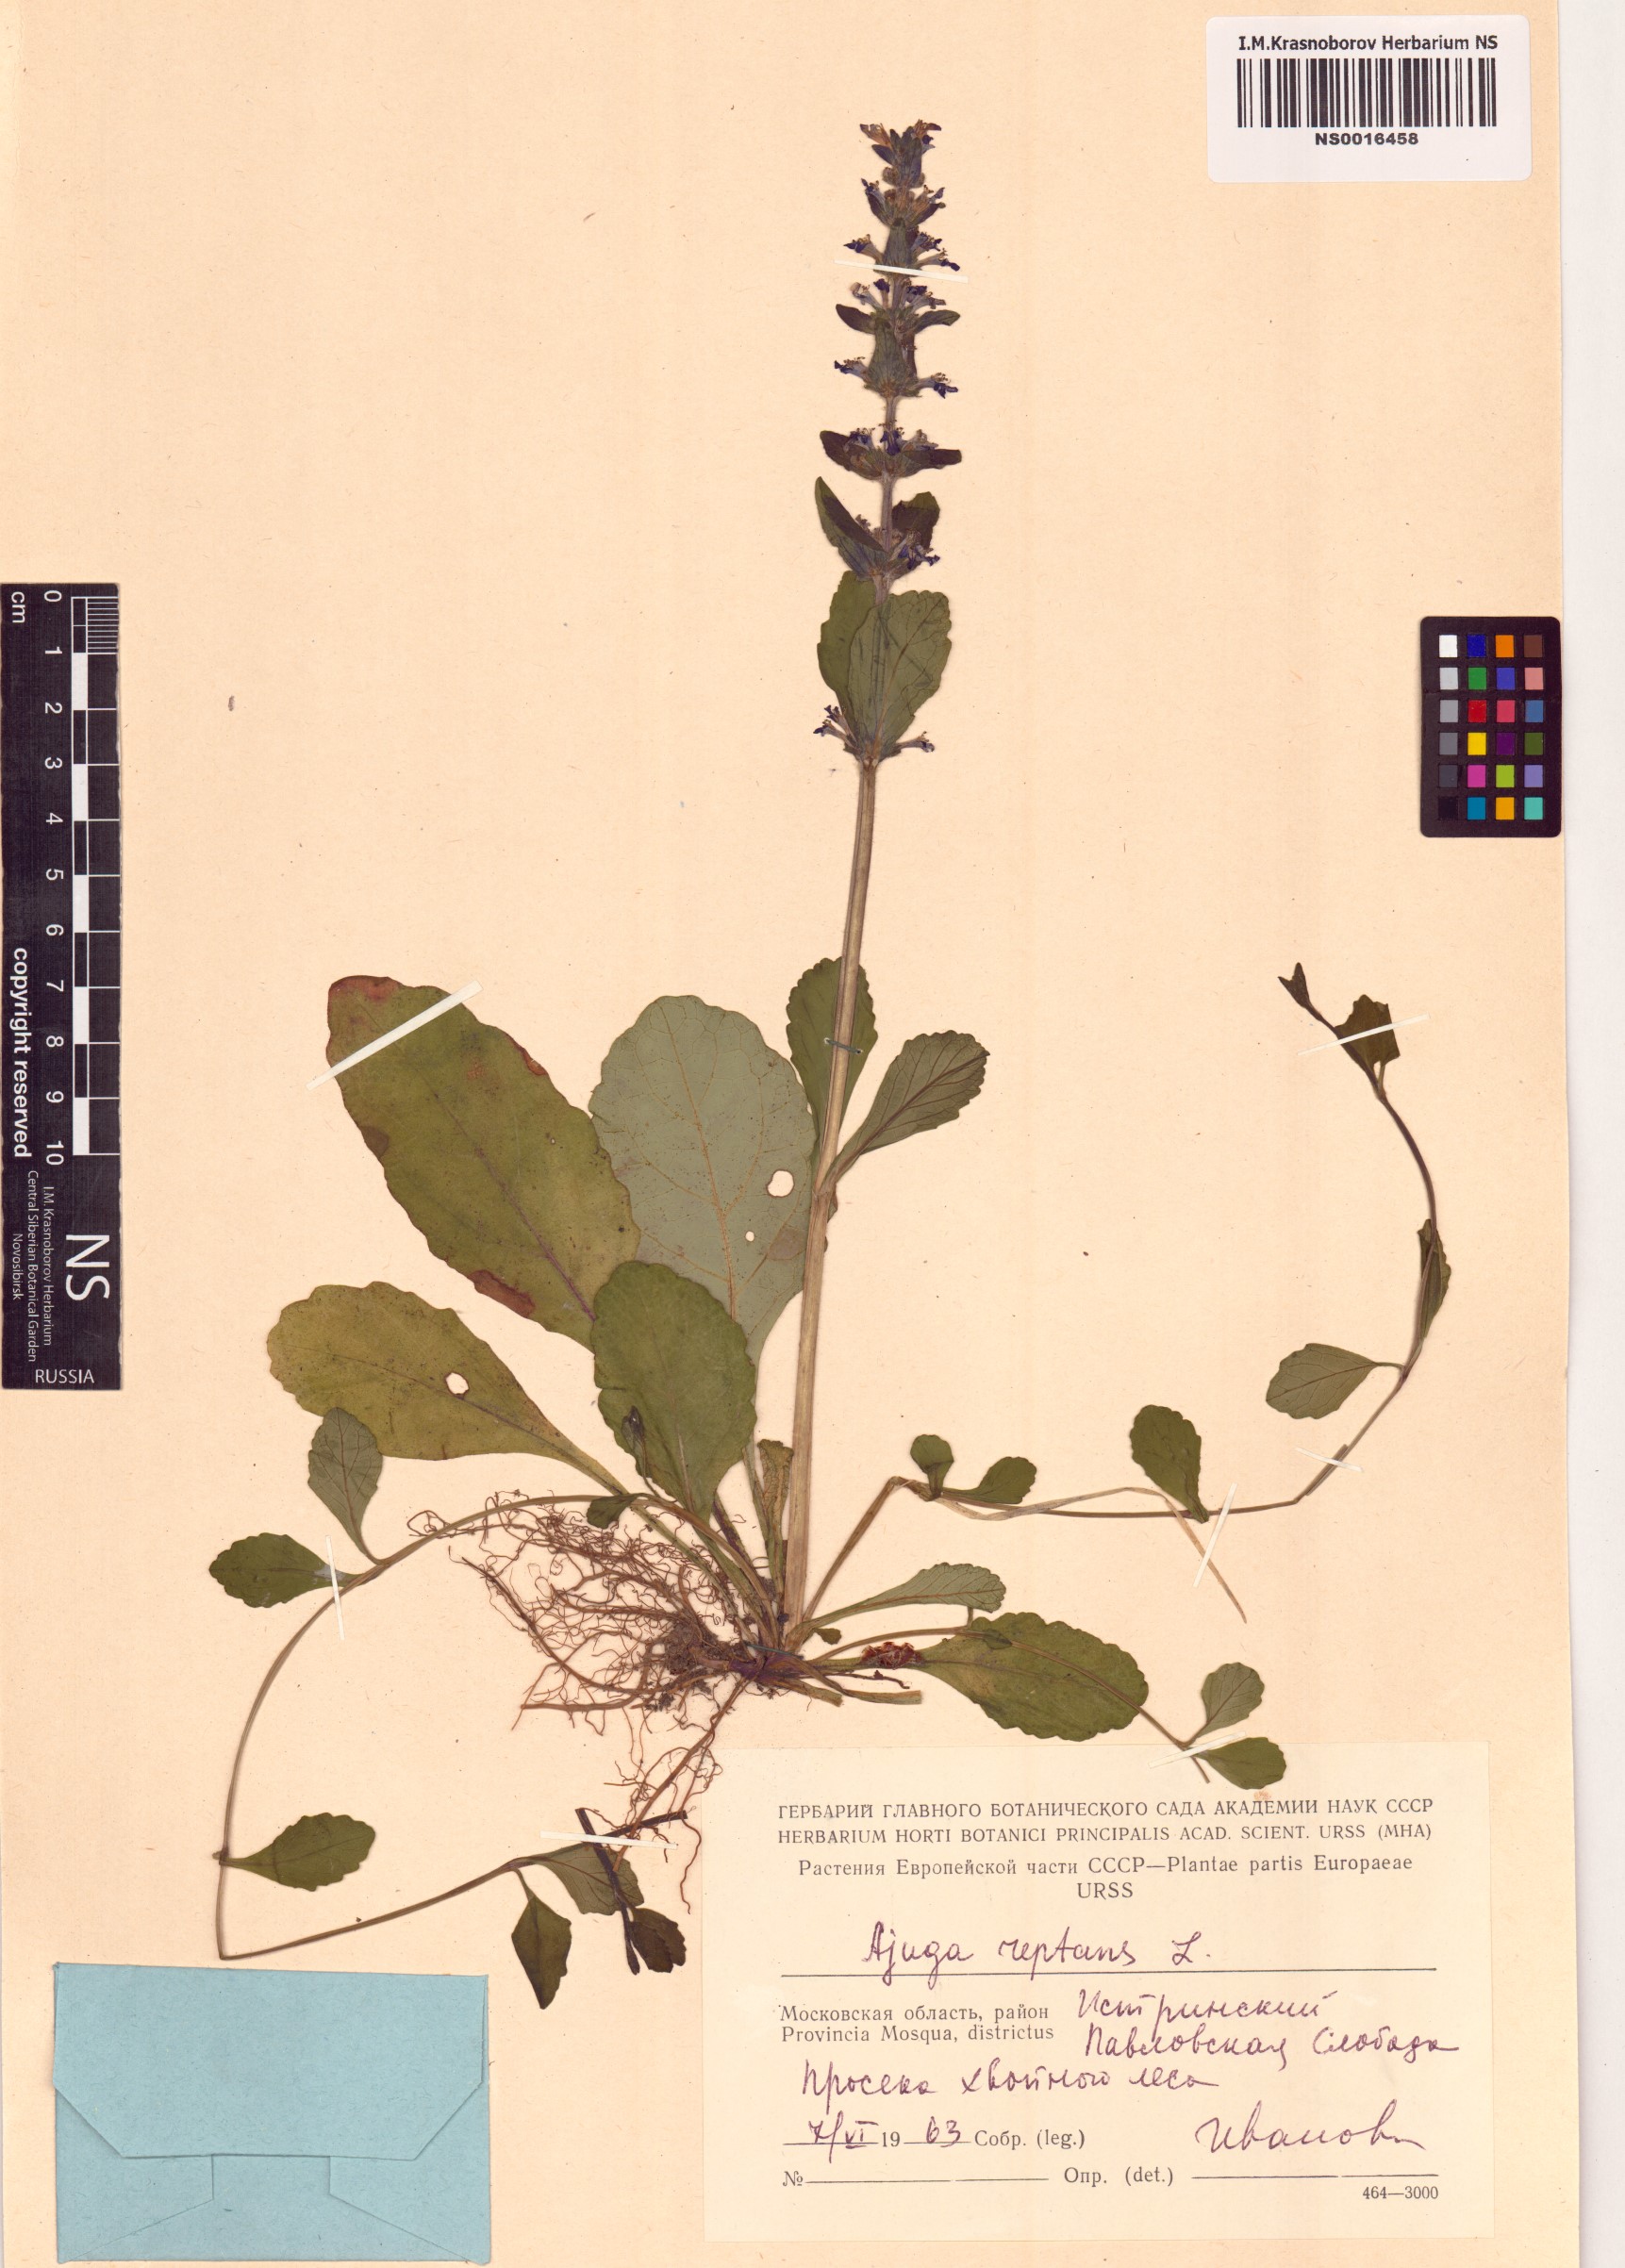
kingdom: Plantae
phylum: Tracheophyta
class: Magnoliopsida
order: Lamiales
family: Lamiaceae
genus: Ajuga
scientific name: Ajuga reptans
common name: Bugle
